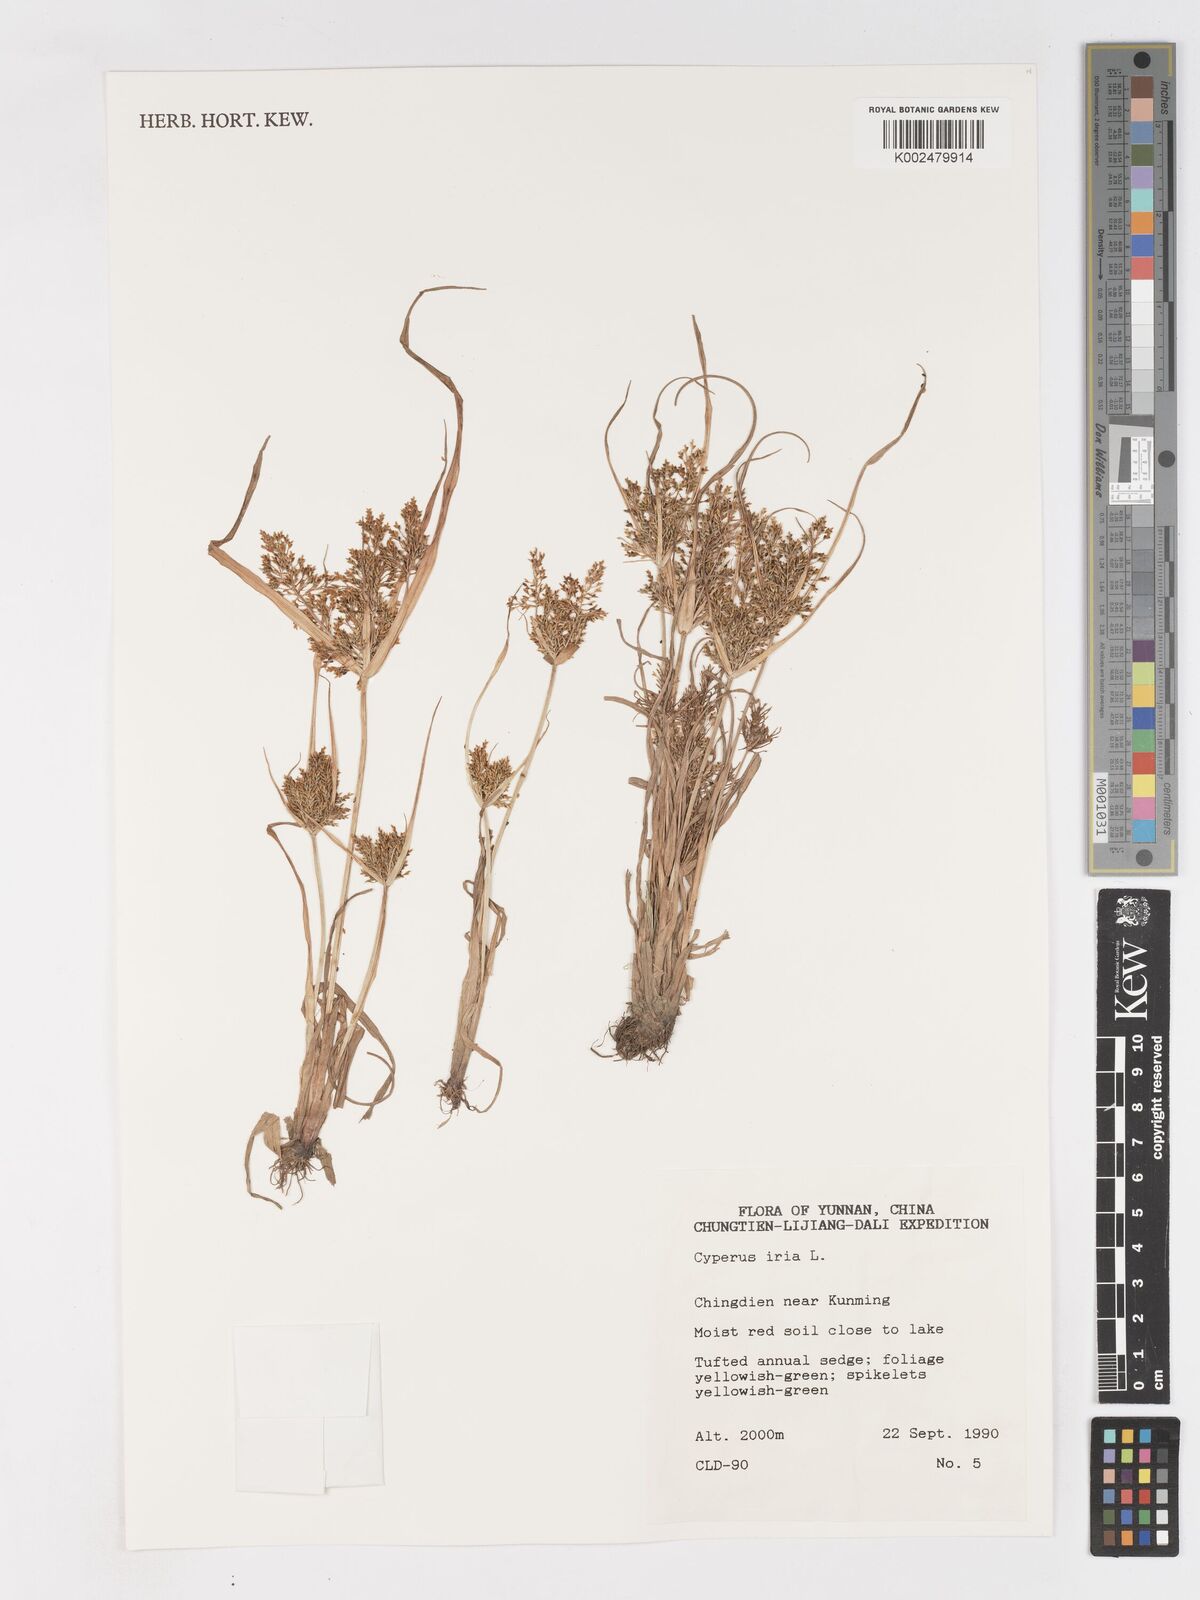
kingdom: Plantae
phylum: Tracheophyta
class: Liliopsida
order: Poales
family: Cyperaceae
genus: Cyperus
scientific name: Cyperus iria
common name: Ricefield flatsedge
